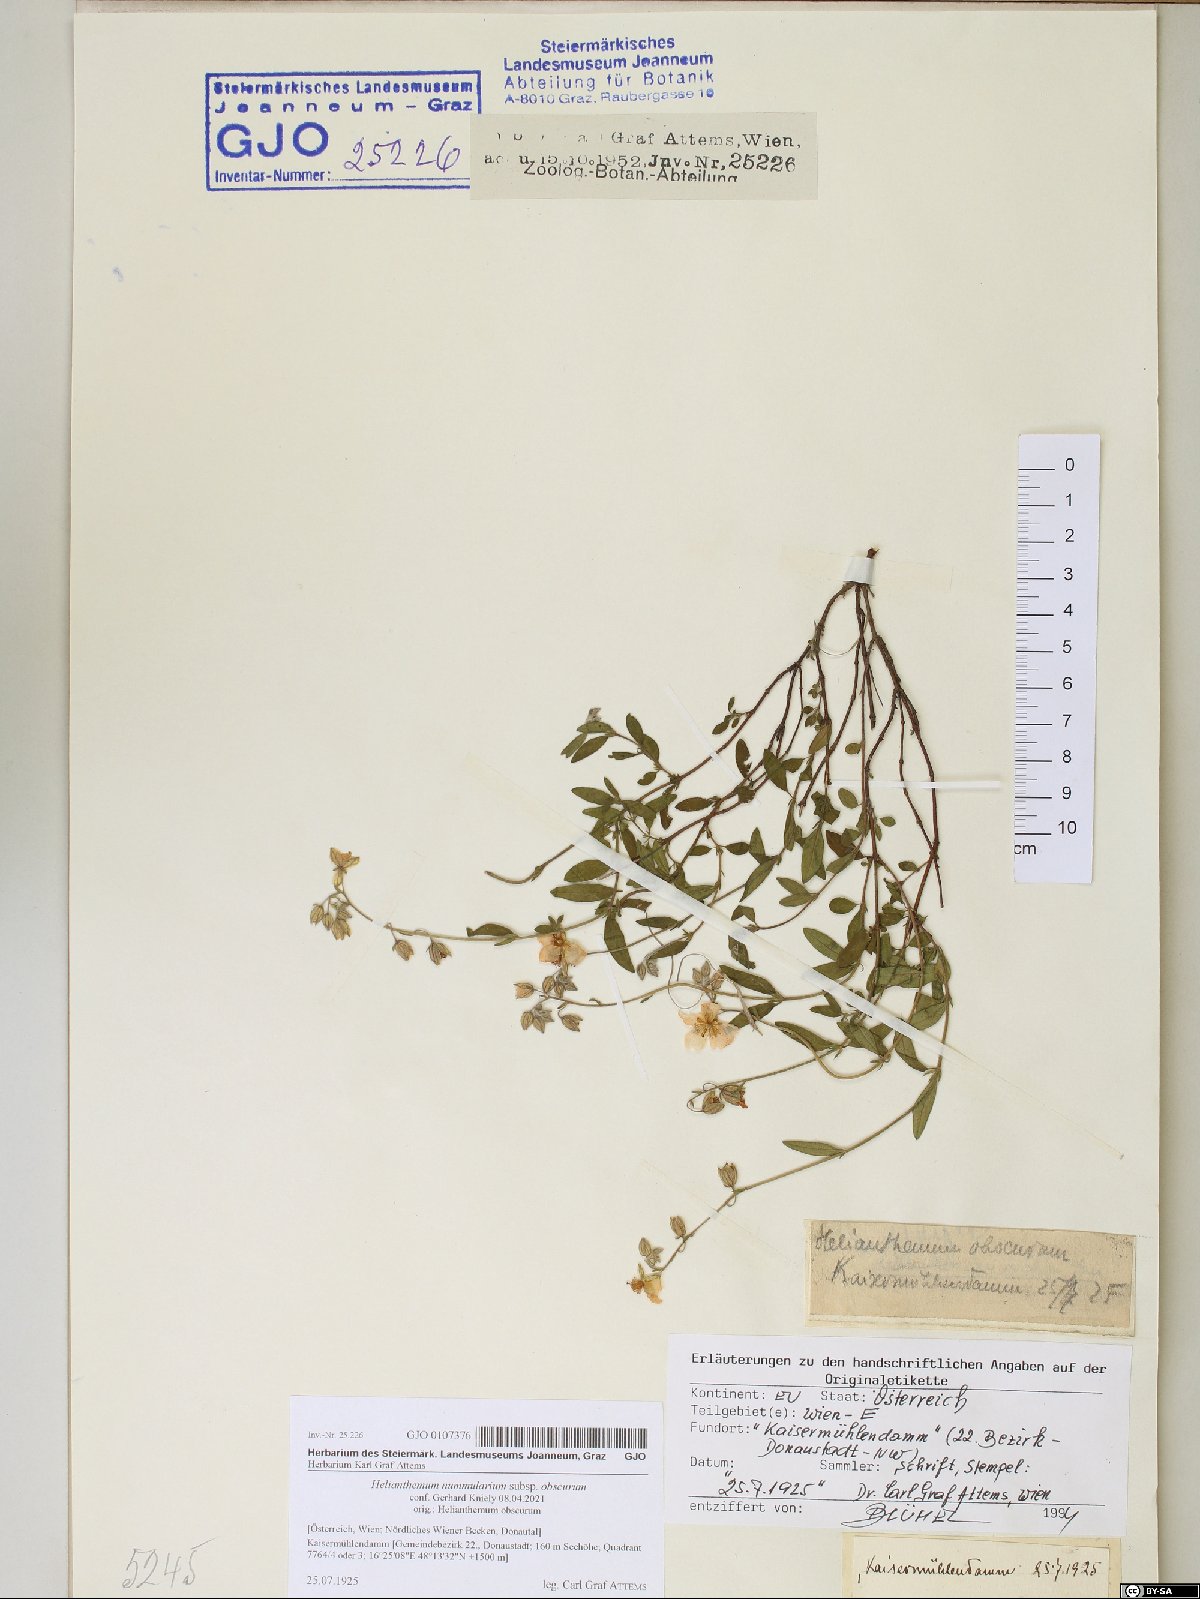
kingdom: Plantae
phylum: Tracheophyta
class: Magnoliopsida
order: Malvales
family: Cistaceae
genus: Helianthemum
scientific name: Helianthemum nummularium
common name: Common rock-rose
